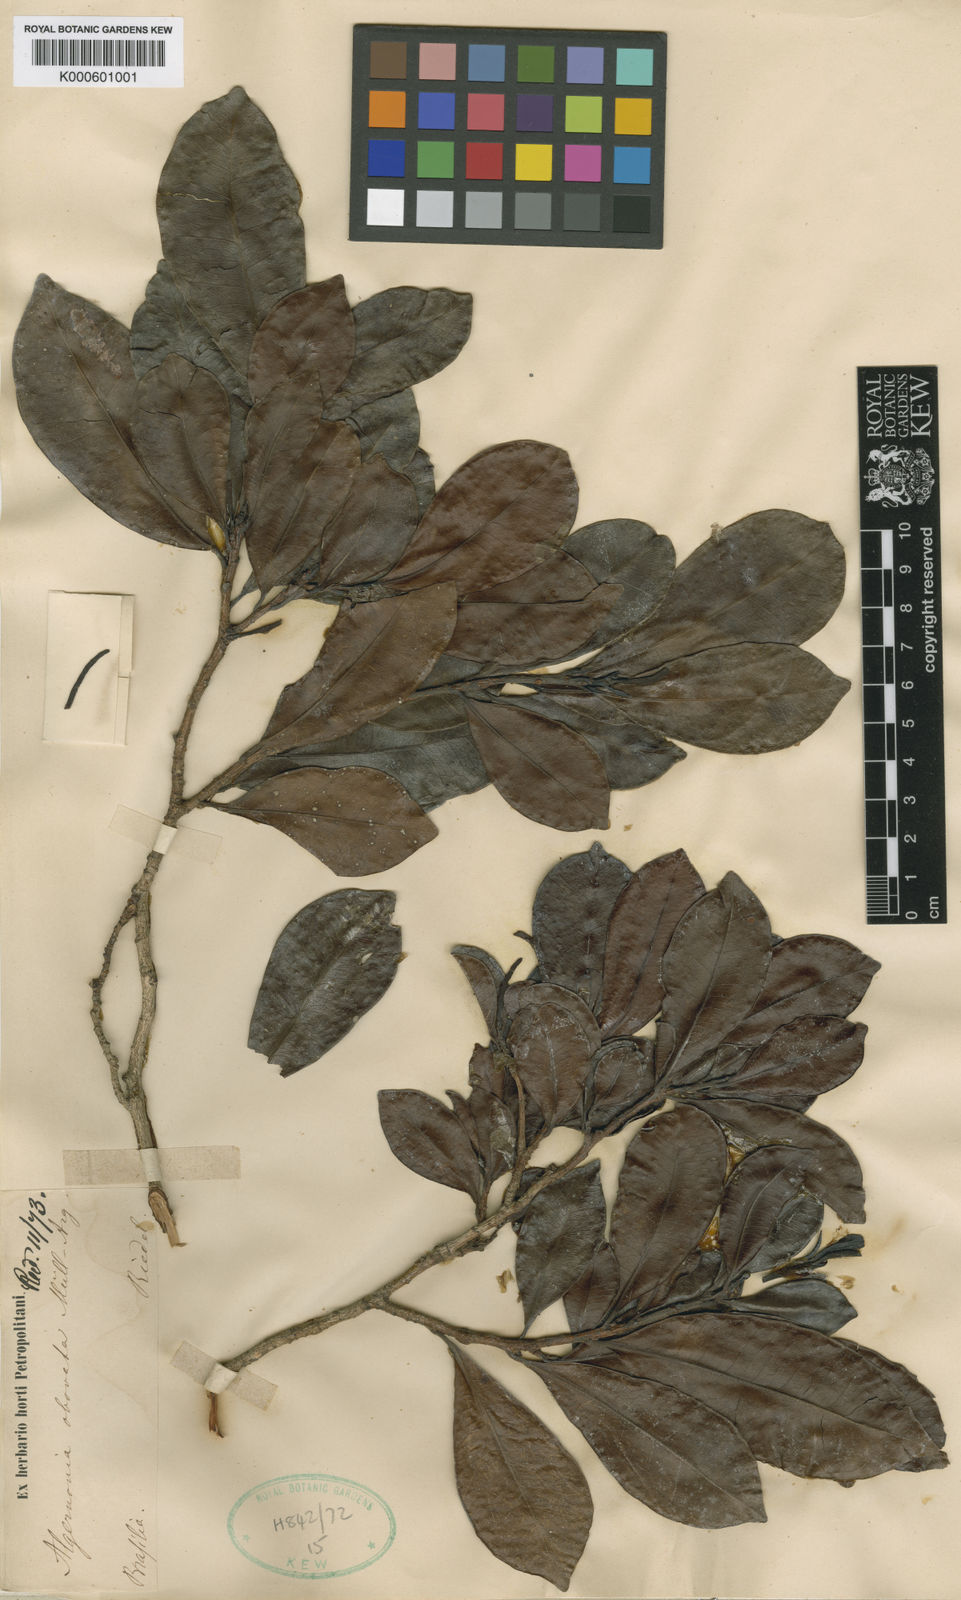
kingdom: Plantae
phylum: Tracheophyta
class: Magnoliopsida
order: Malpighiales
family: Euphorbiaceae
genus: Algernonia
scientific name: Algernonia
